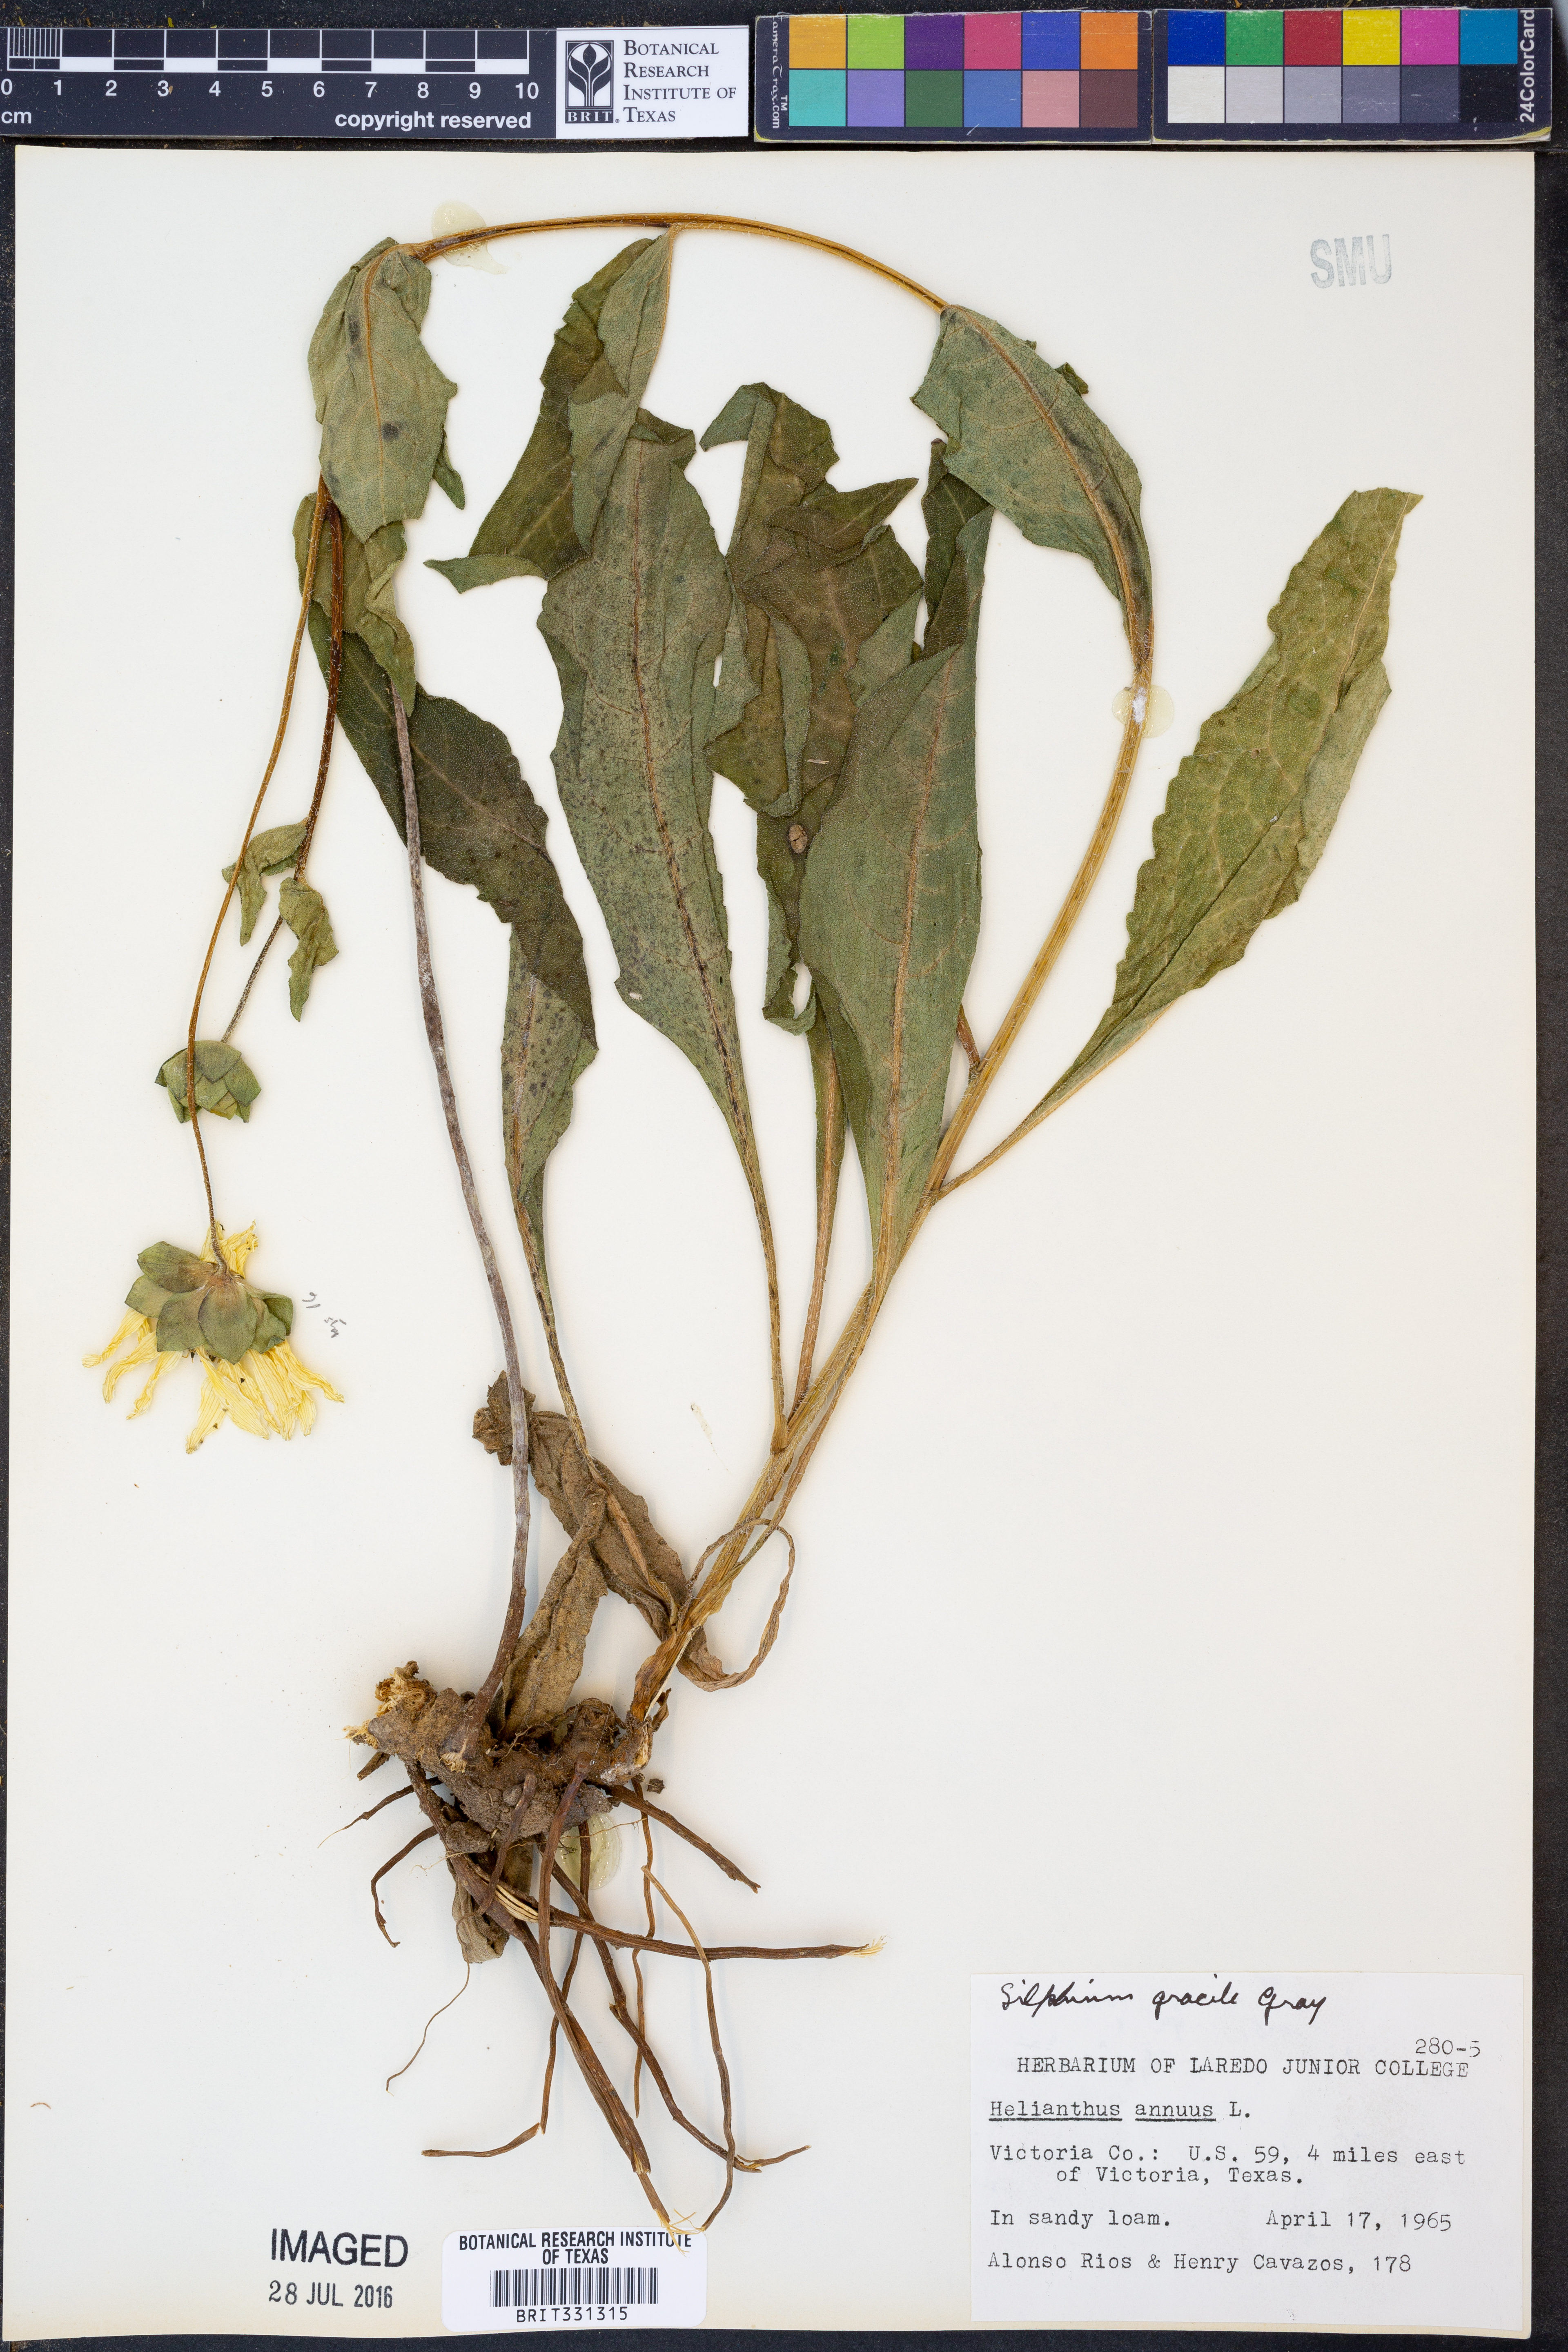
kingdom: Plantae
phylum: Tracheophyta
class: Magnoliopsida
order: Asterales
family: Asteraceae
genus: Silphium
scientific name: Silphium radula
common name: Roughleaf rosinweed
